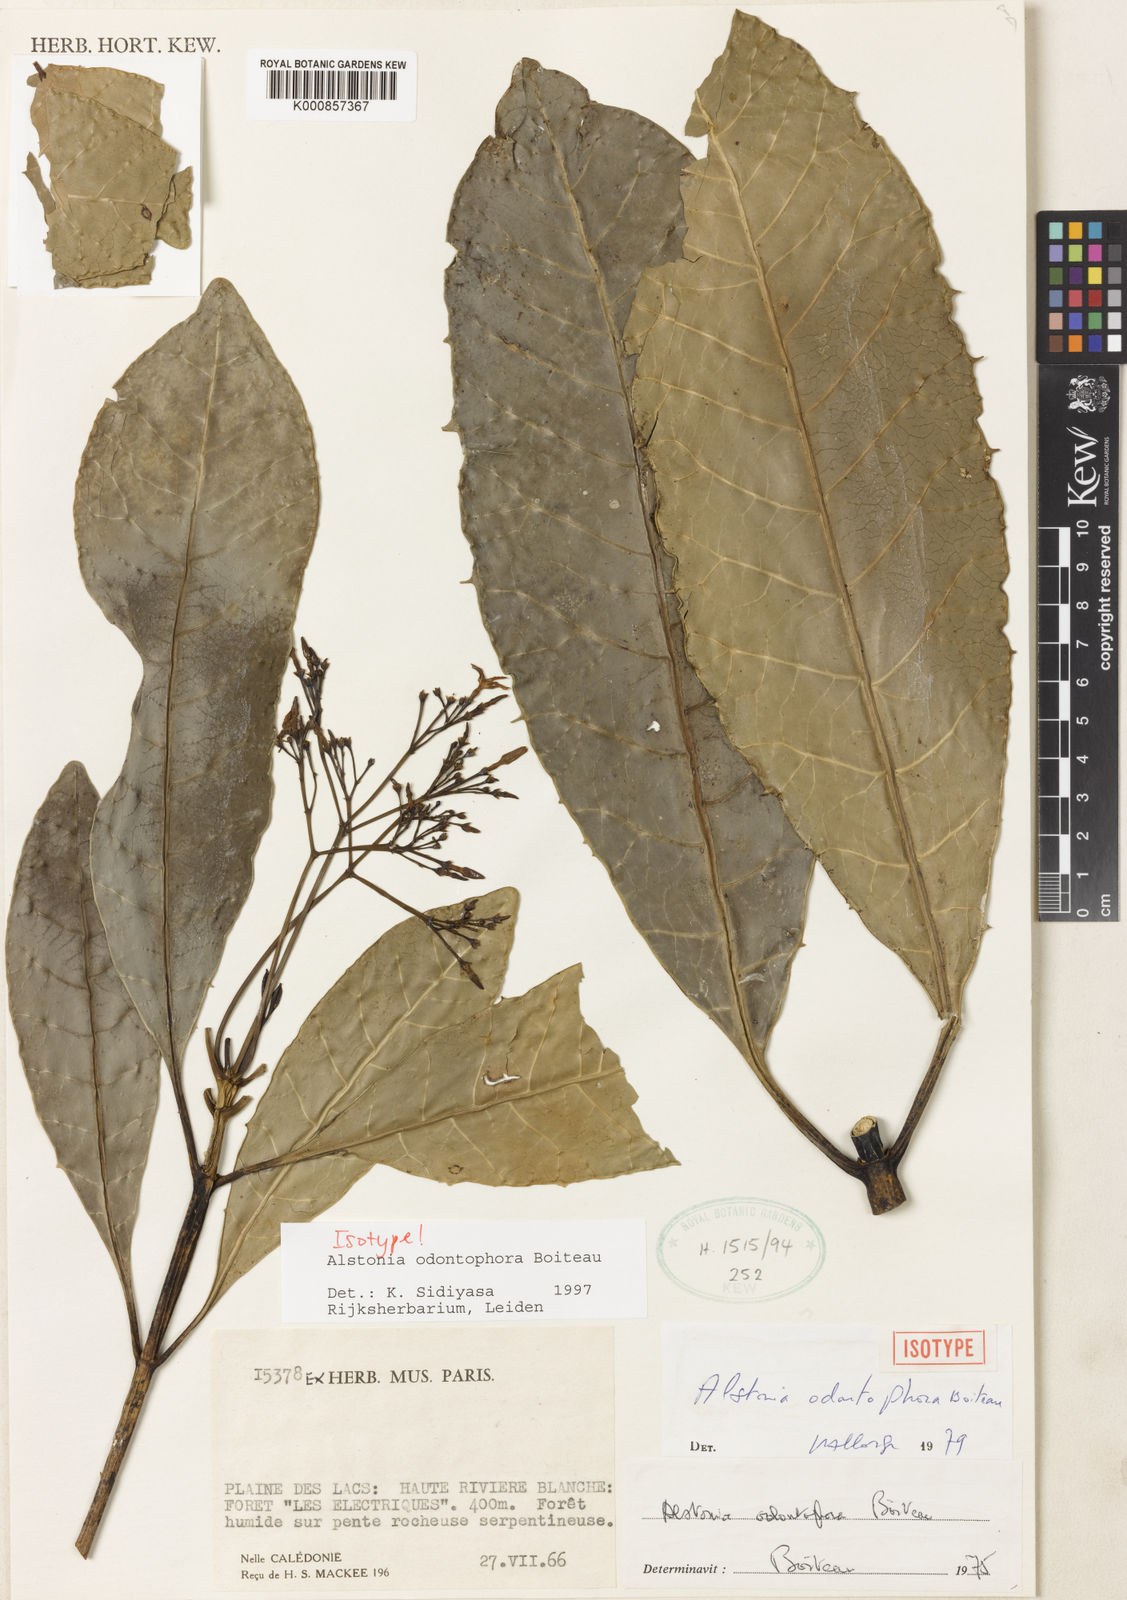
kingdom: Plantae
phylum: Tracheophyta
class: Magnoliopsida
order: Gentianales
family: Apocynaceae
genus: Alstonia
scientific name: Alstonia odontophora
